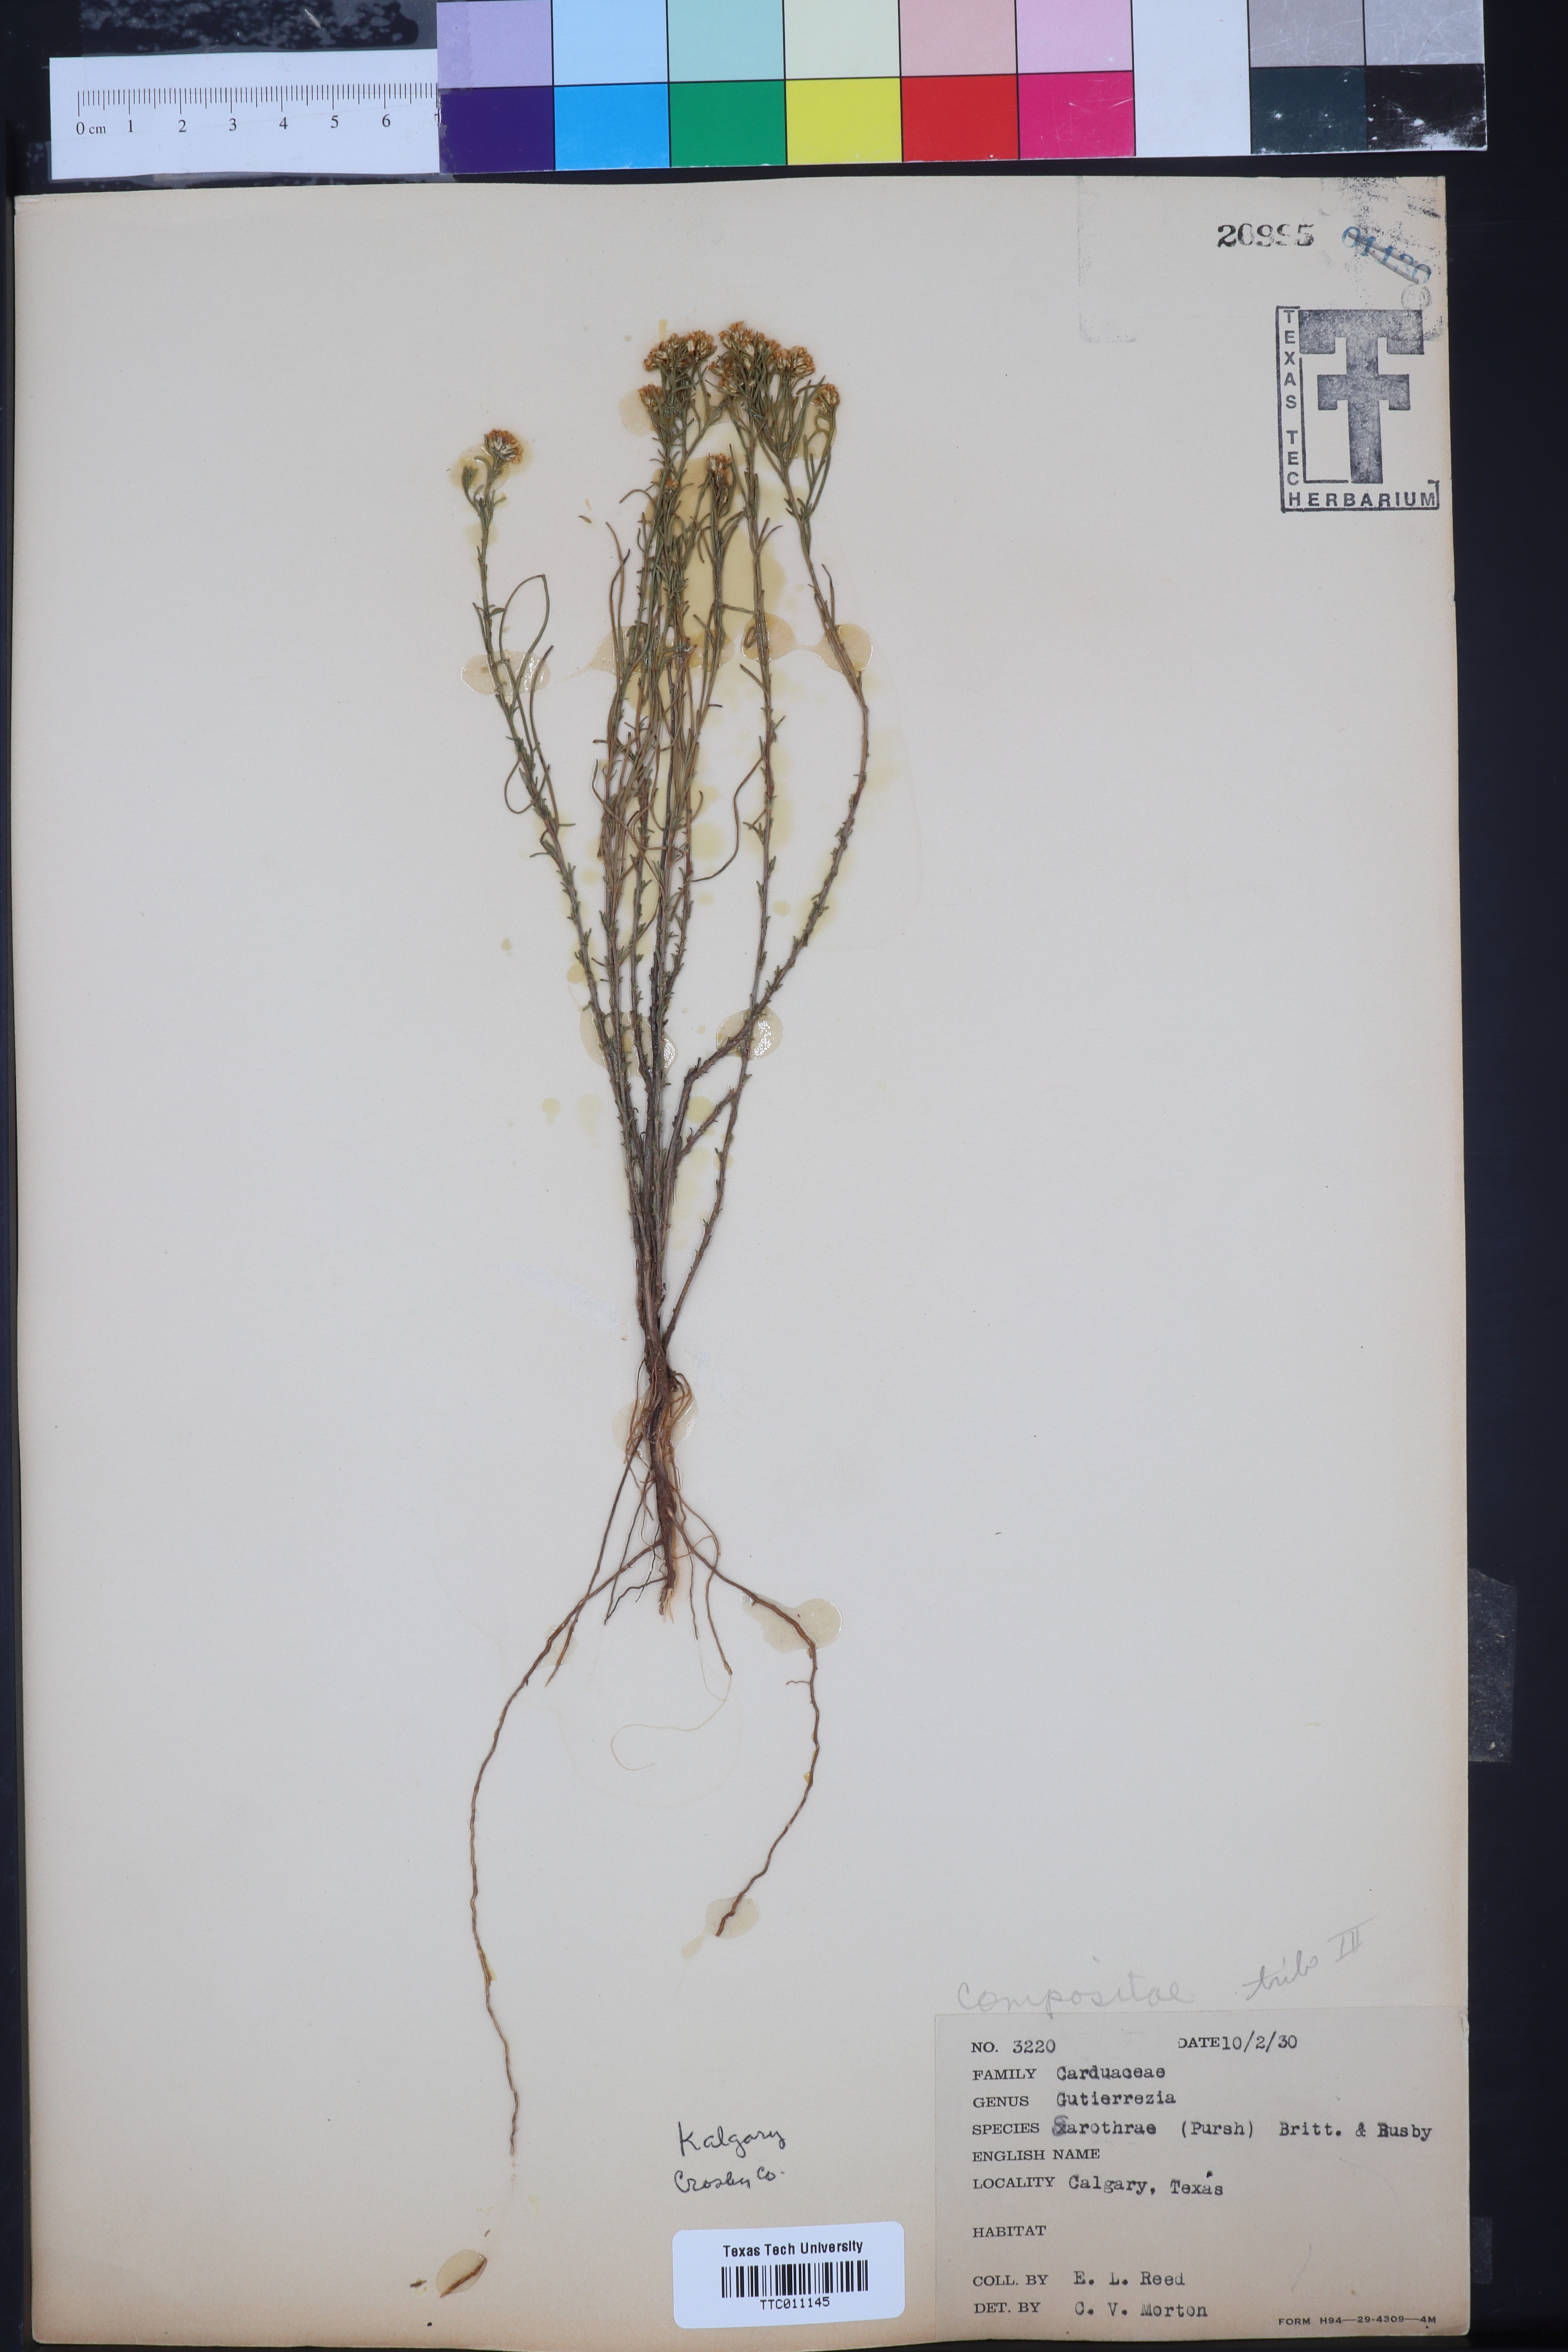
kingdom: Plantae
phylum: Tracheophyta
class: Magnoliopsida
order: Asterales
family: Asteraceae
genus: Gutierrezia
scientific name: Gutierrezia sarothrae
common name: Broom snakeweed
